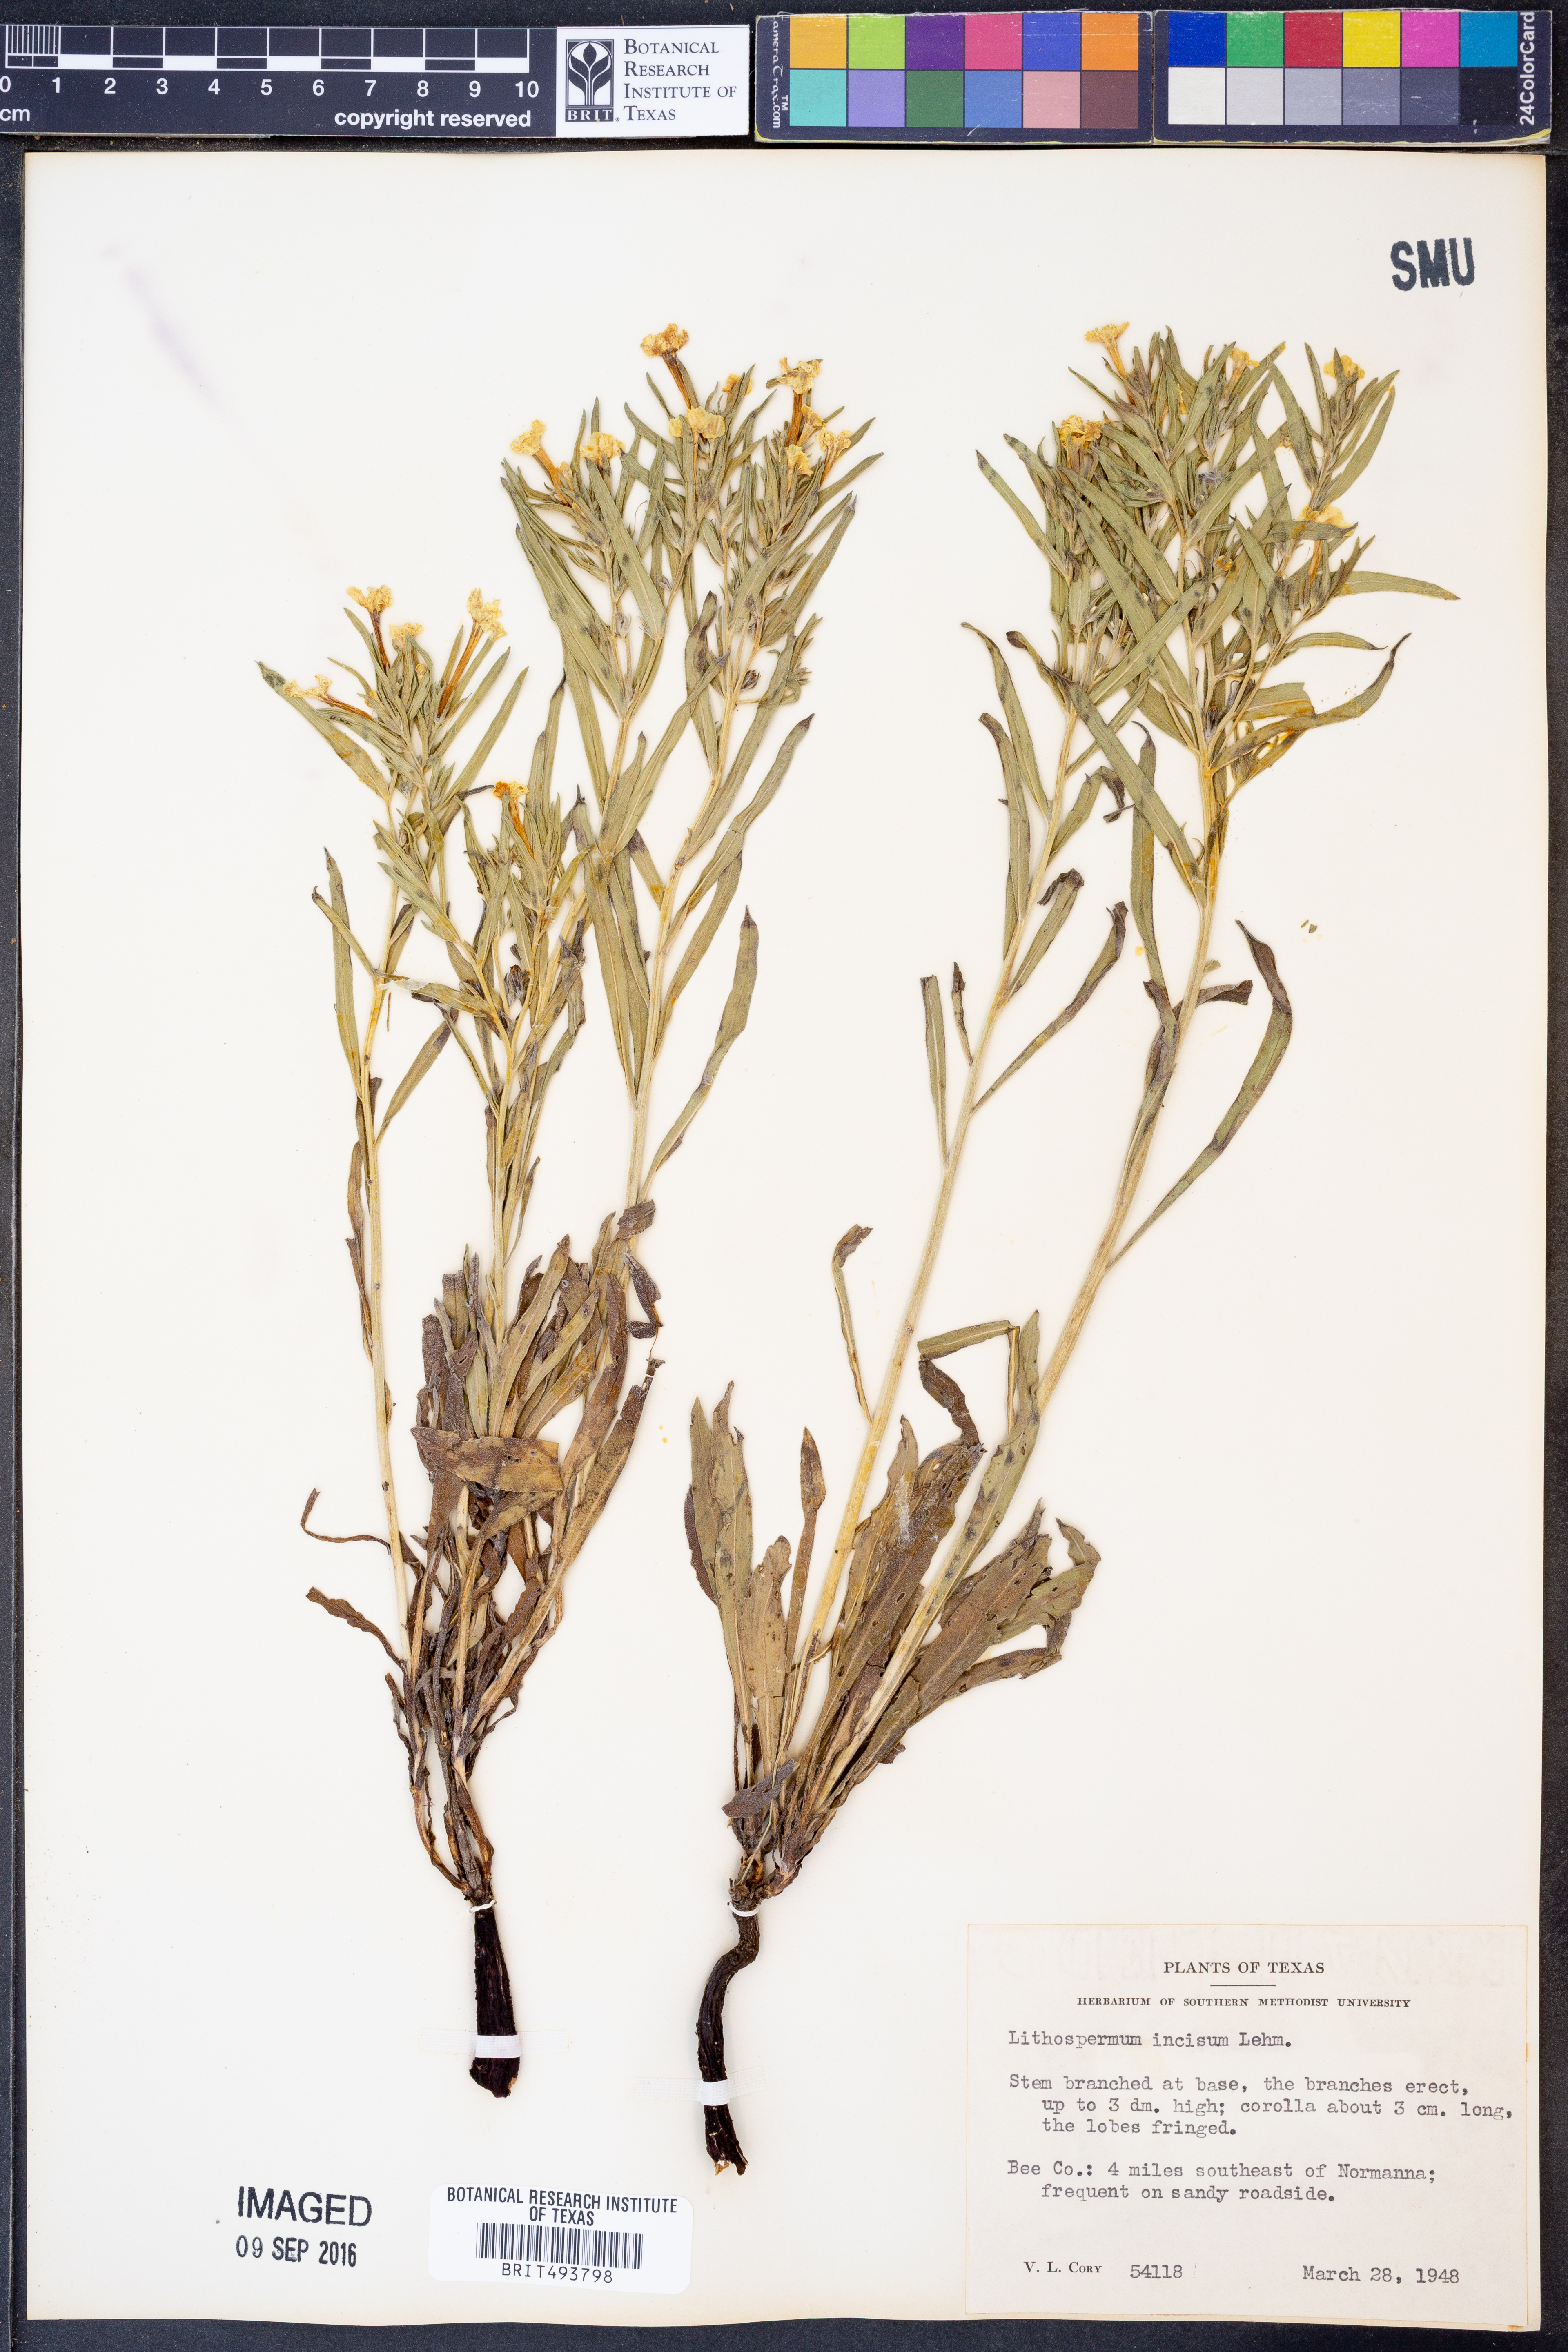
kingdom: Plantae
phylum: Tracheophyta
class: Magnoliopsida
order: Boraginales
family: Boraginaceae
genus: Lithospermum
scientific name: Lithospermum incisum
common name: Fringed gromwell
